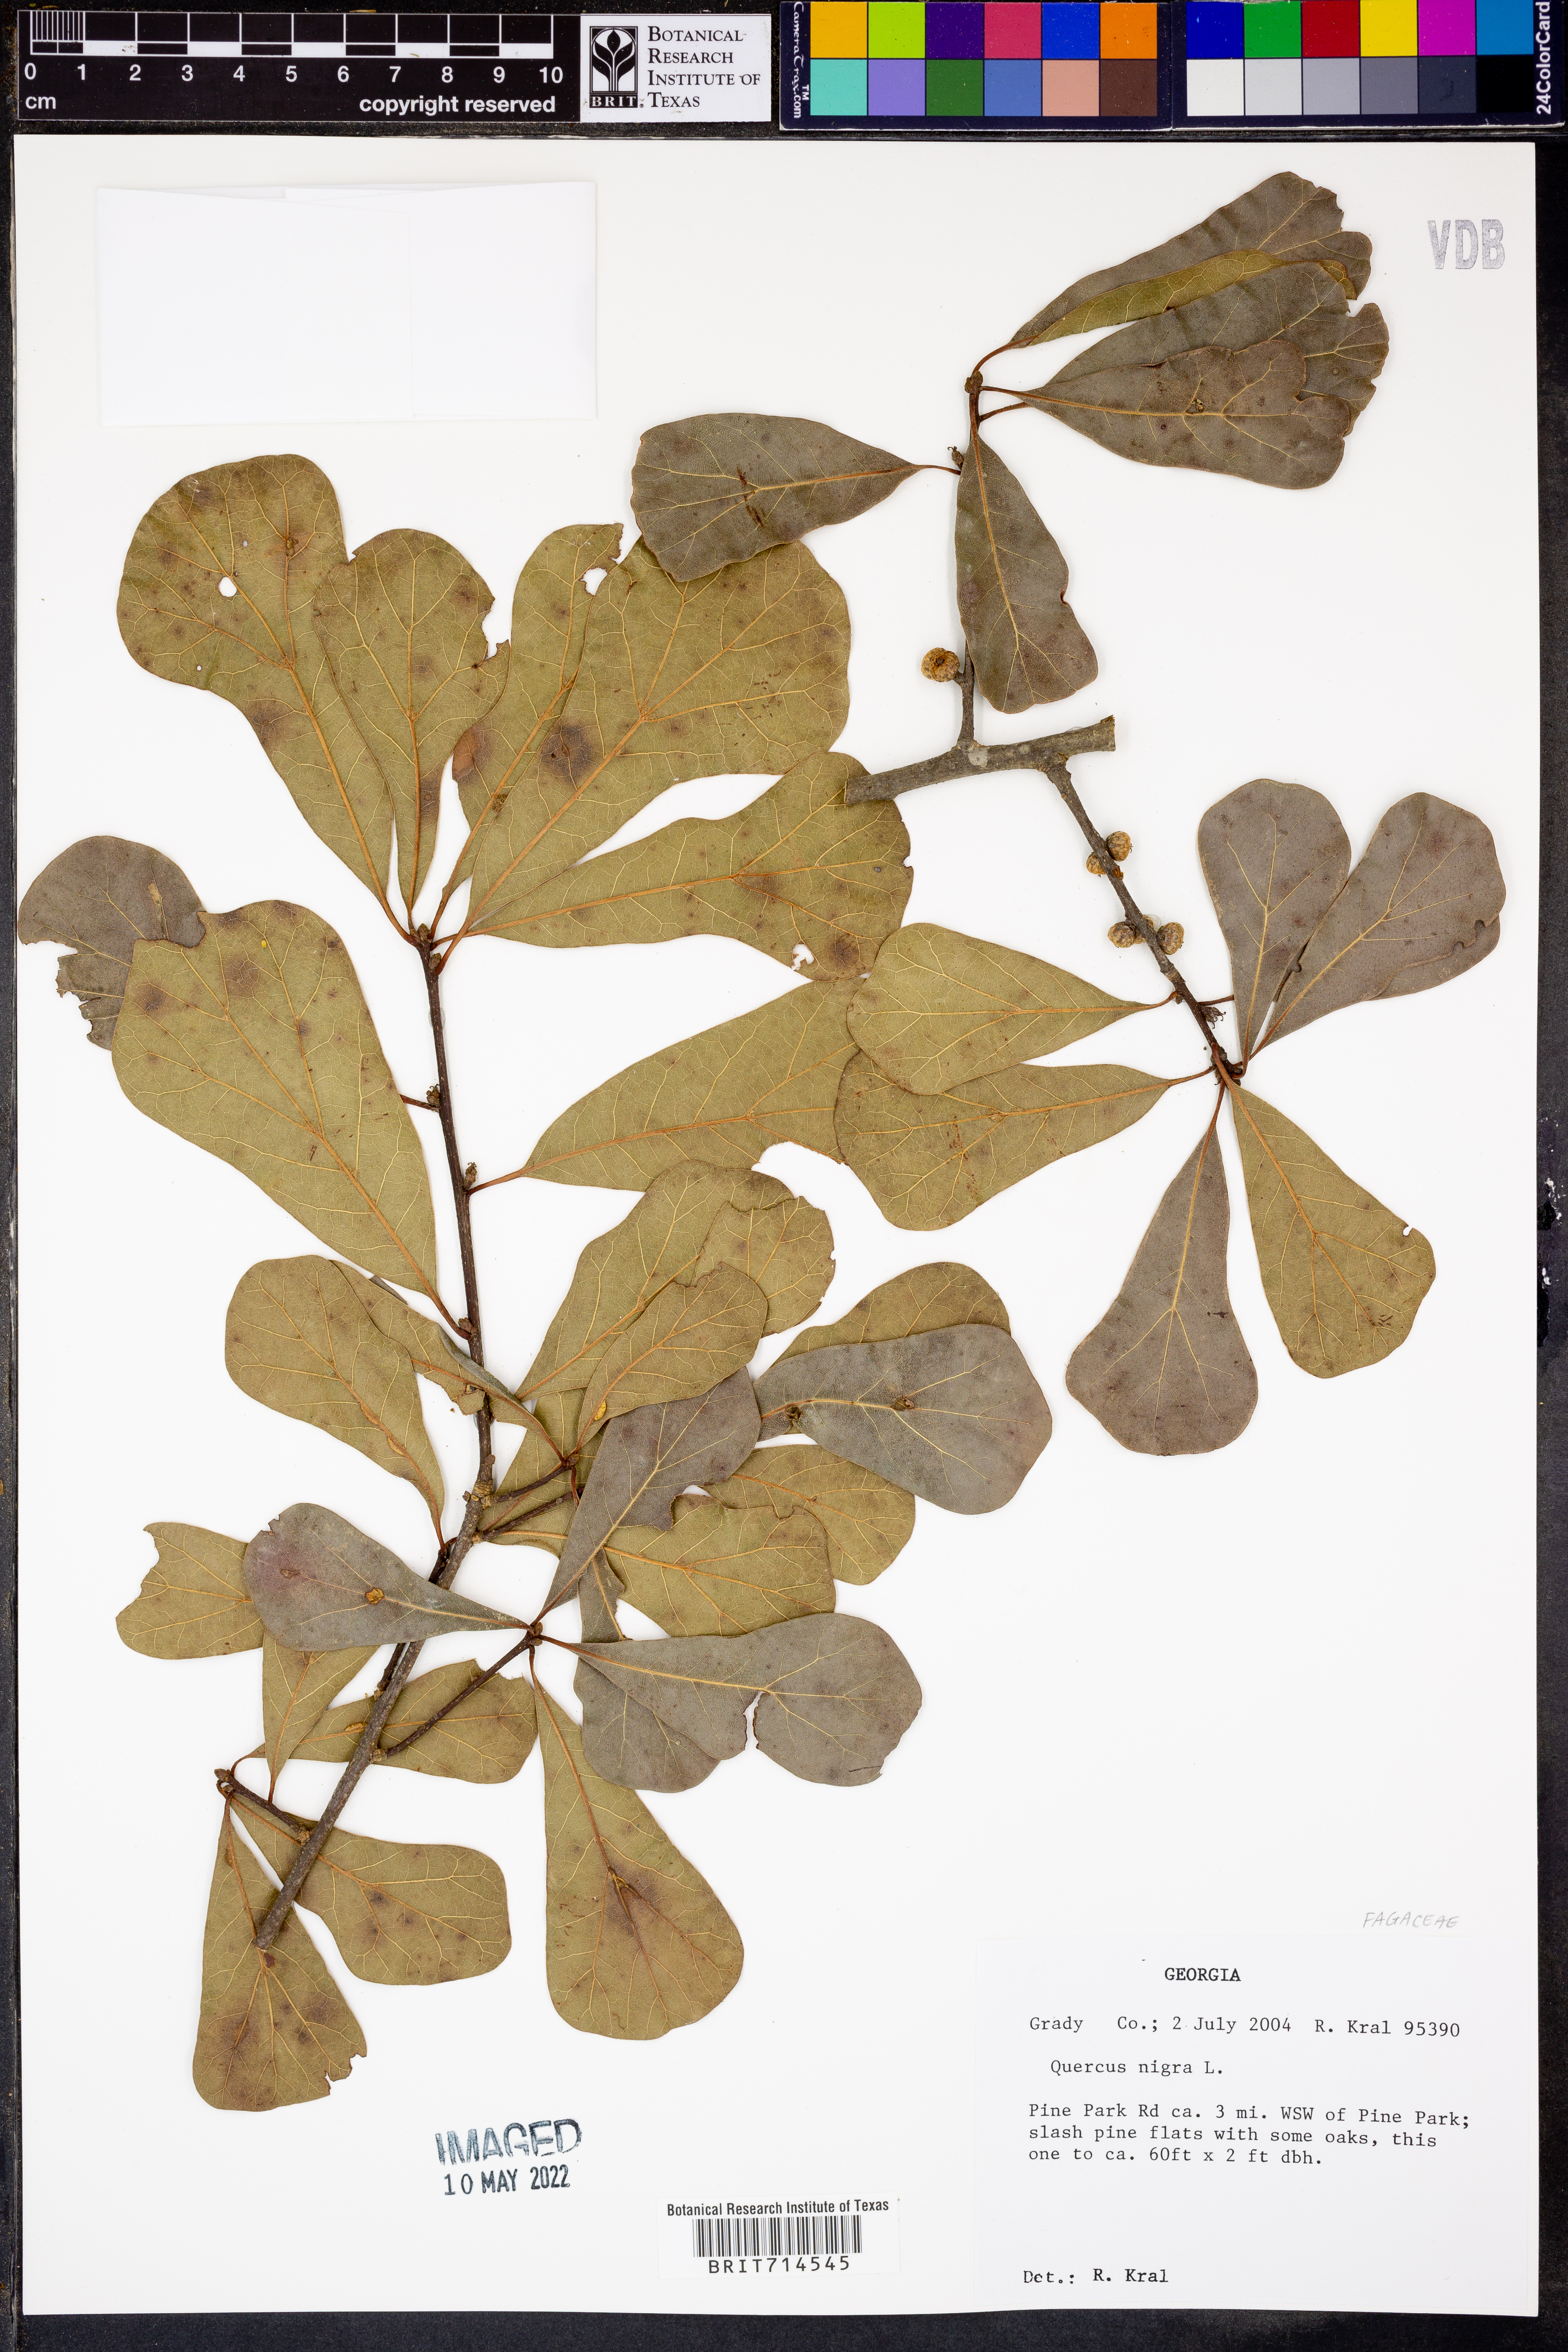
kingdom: Plantae
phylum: Tracheophyta
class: Magnoliopsida
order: Fagales
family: Fagaceae
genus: Quercus
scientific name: Quercus nigra
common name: Water oak
